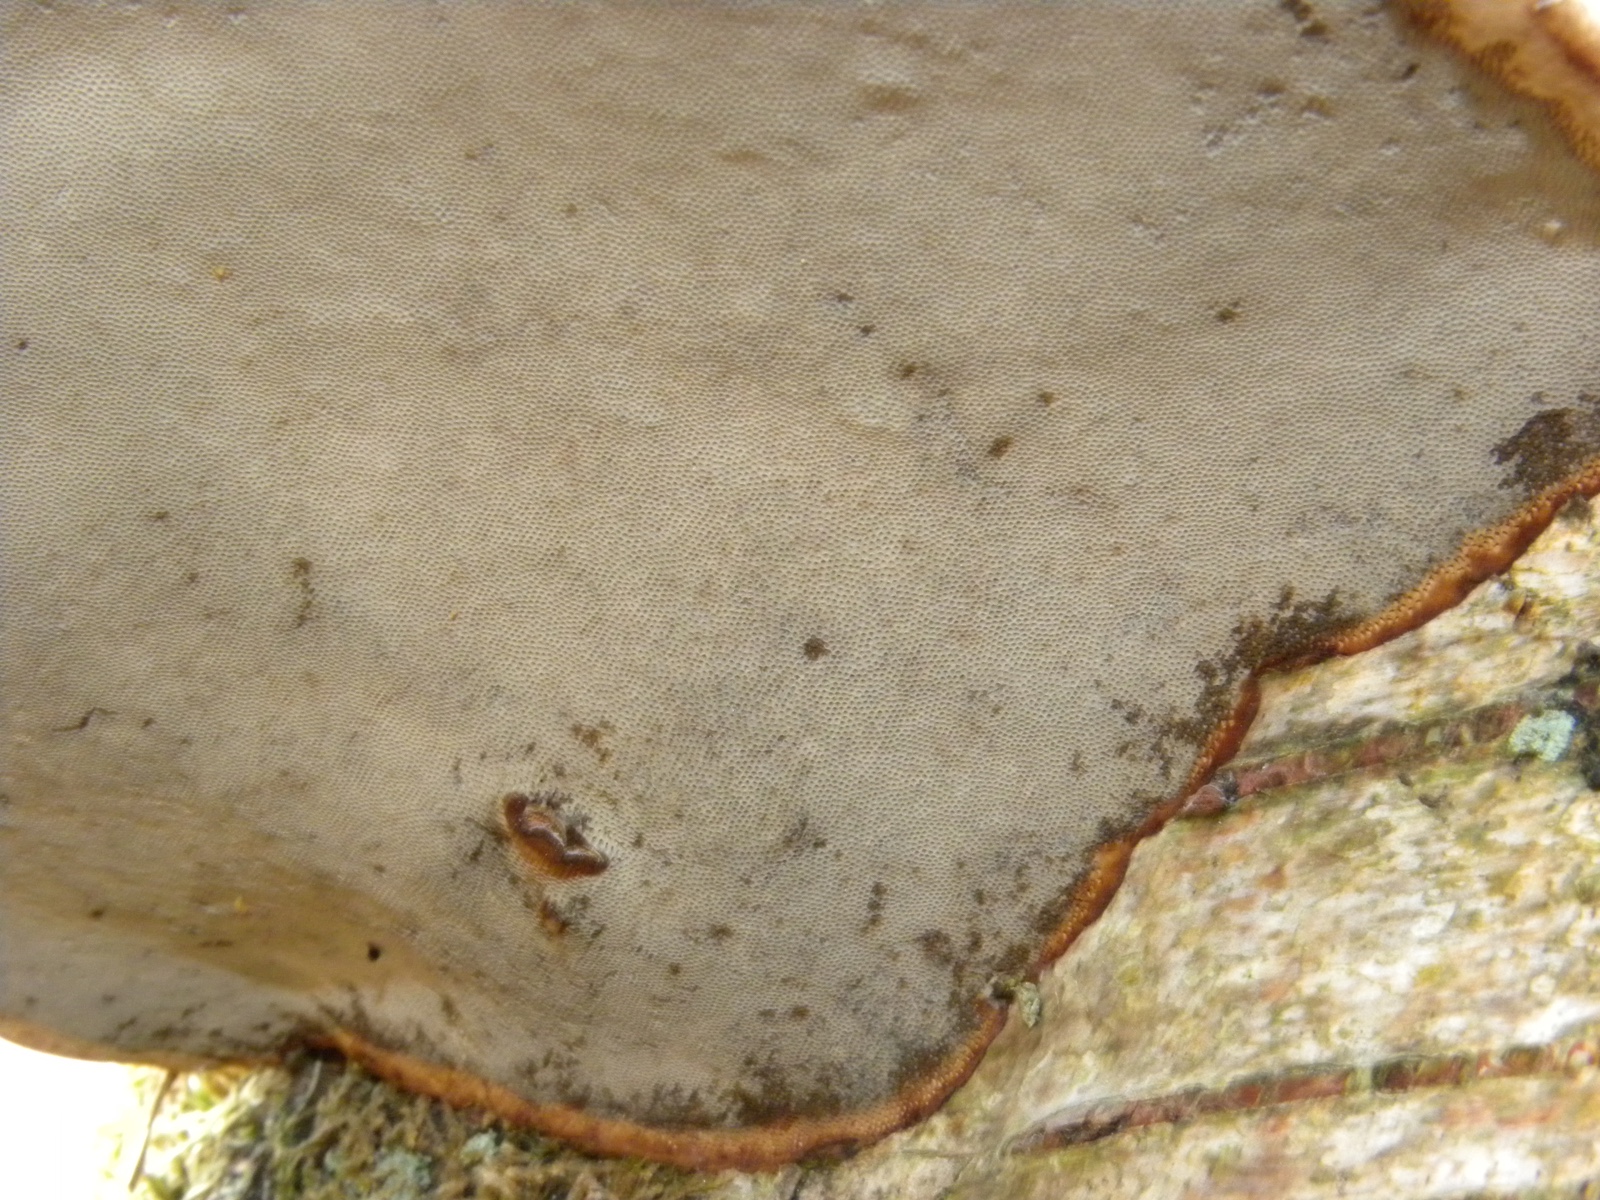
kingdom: Fungi
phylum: Basidiomycota
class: Agaricomycetes
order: Polyporales
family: Polyporaceae
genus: Fomes
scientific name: Fomes fomentarius
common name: tøndersvamp
